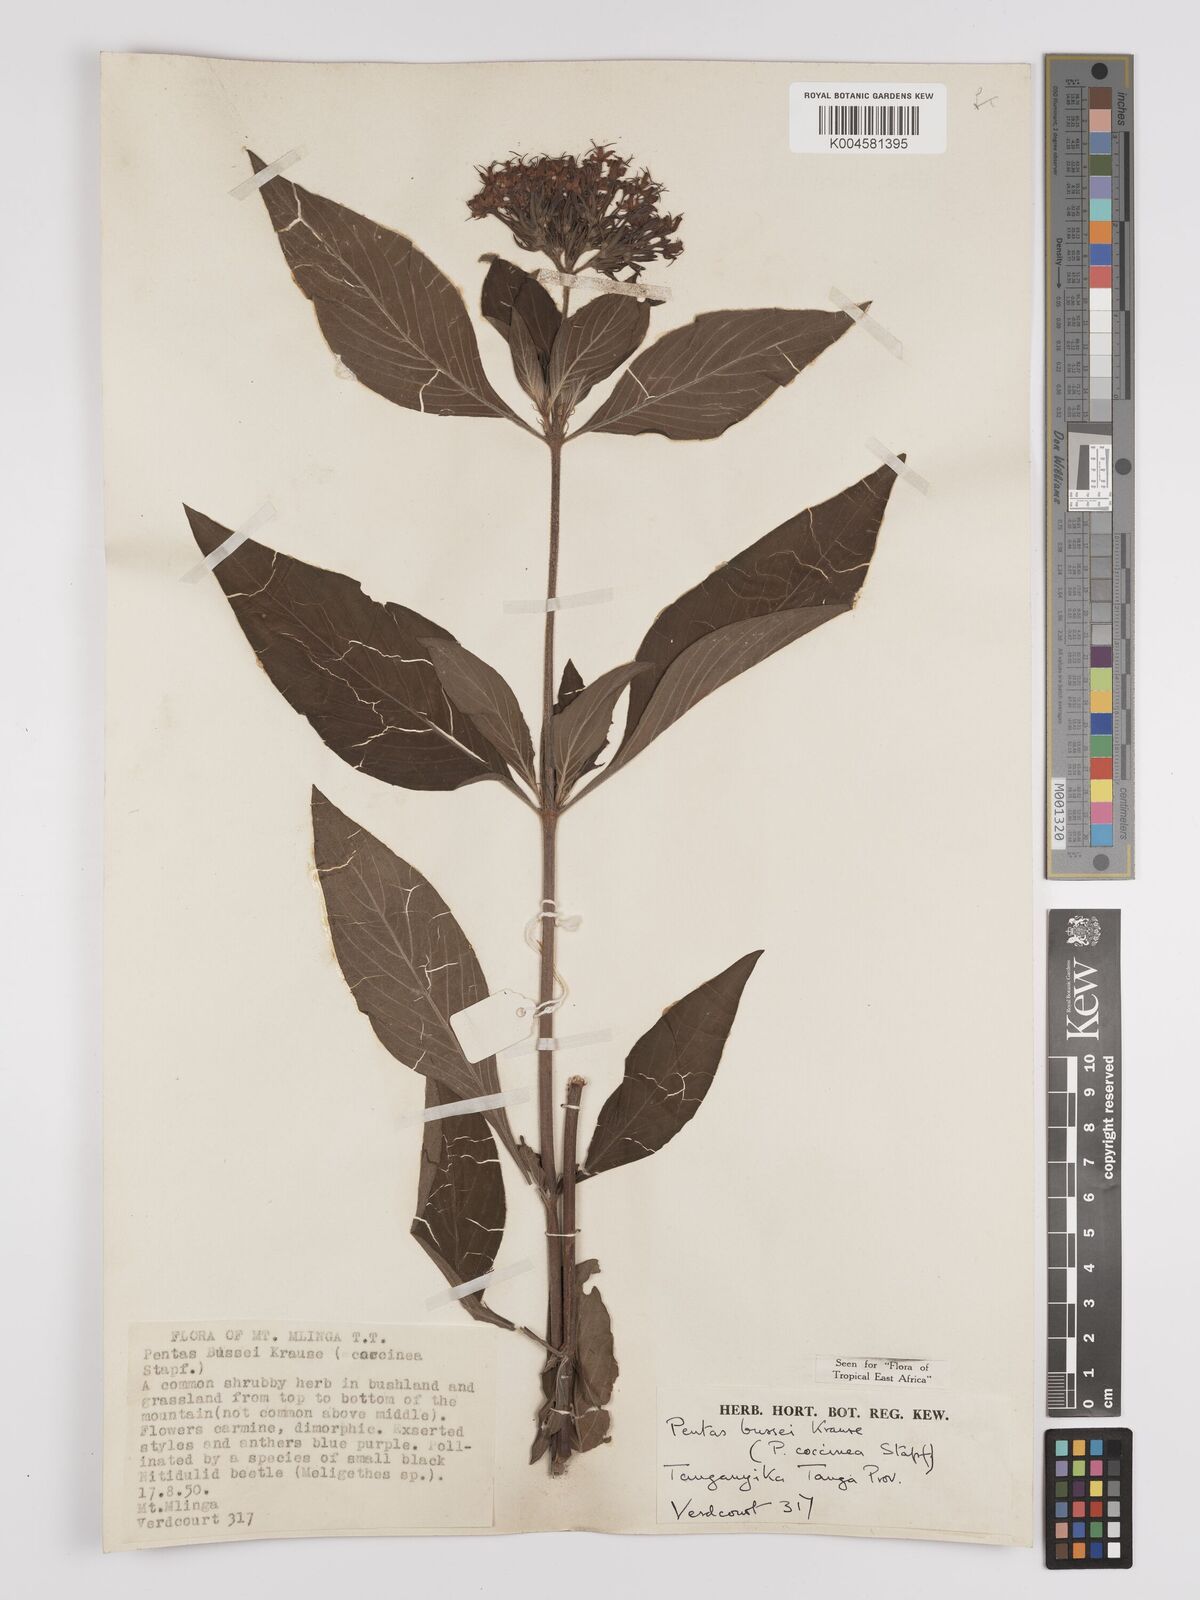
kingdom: Plantae
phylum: Tracheophyta
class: Magnoliopsida
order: Gentianales
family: Rubiaceae
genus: Rhodopentas
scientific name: Rhodopentas bussei
